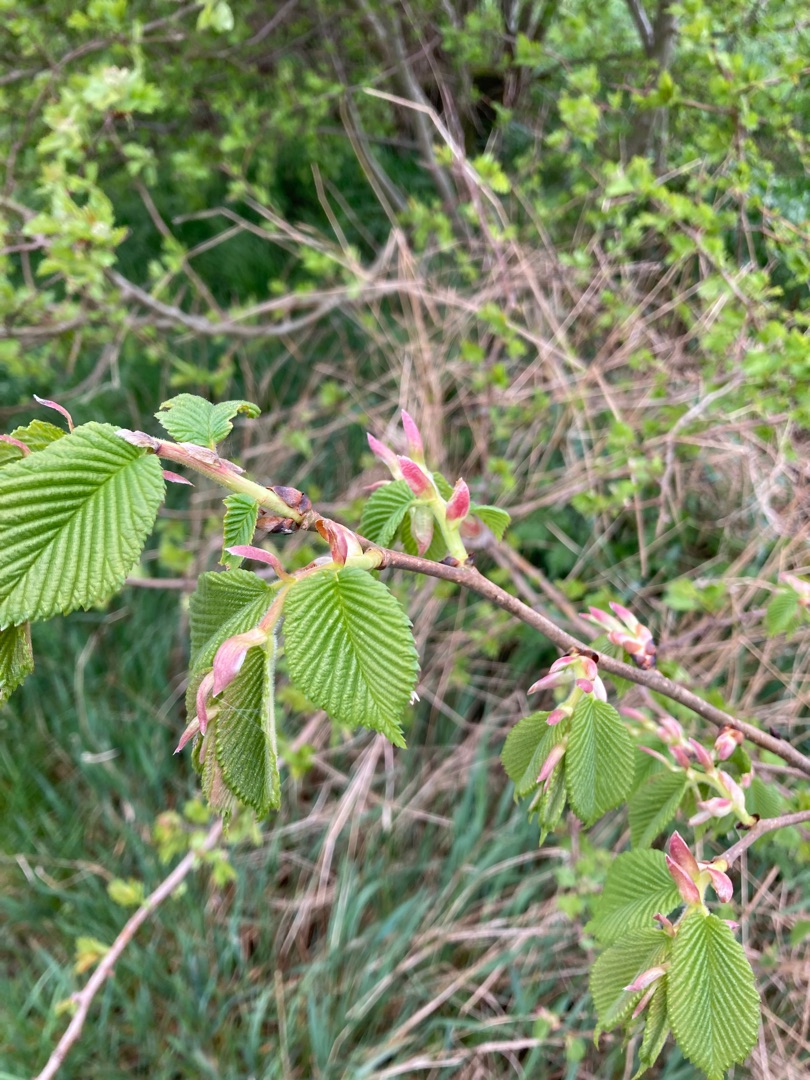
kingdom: Plantae
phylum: Tracheophyta
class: Magnoliopsida
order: Rosales
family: Ulmaceae
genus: Ulmus
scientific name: Ulmus glabra
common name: Skov-elm/storbladet elm
